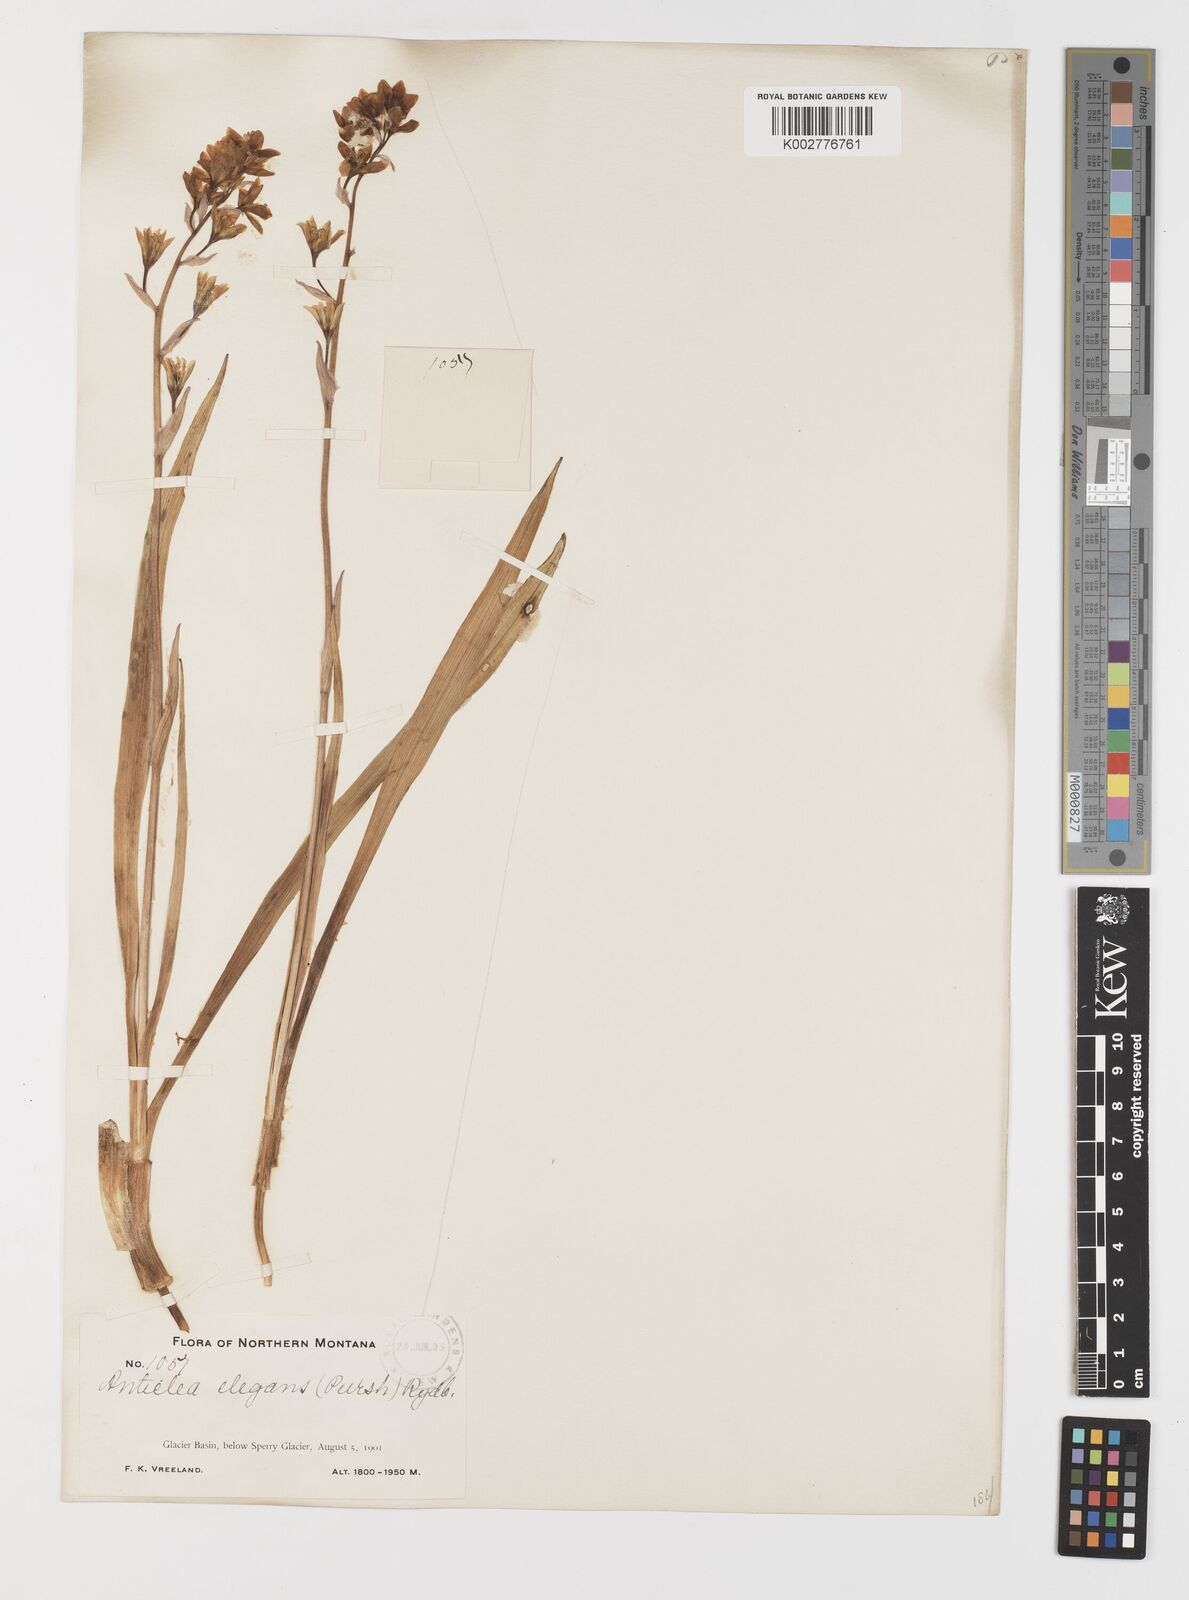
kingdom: Plantae
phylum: Tracheophyta
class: Liliopsida
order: Liliales
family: Melanthiaceae
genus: Anticlea
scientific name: Anticlea elegans
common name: Mountain death camas
